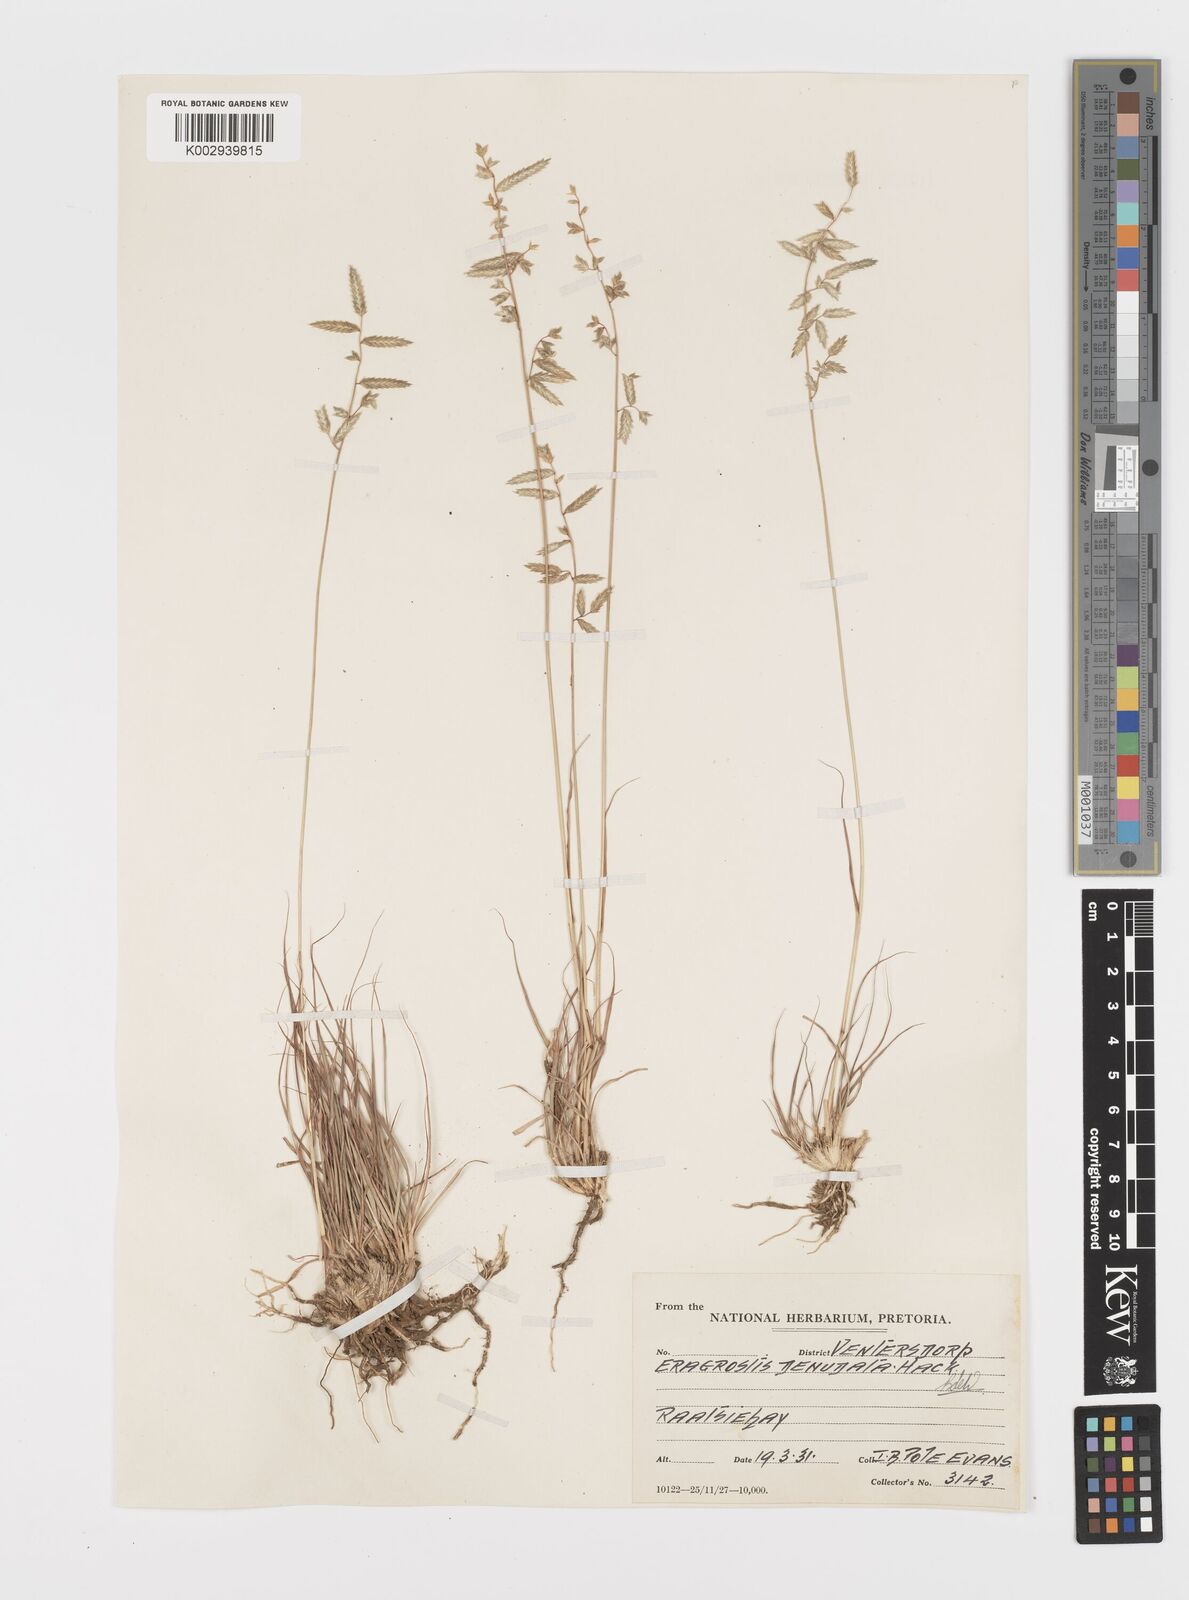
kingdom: Plantae
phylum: Tracheophyta
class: Liliopsida
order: Poales
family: Poaceae
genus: Eragrostis
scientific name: Eragrostis nindensis
